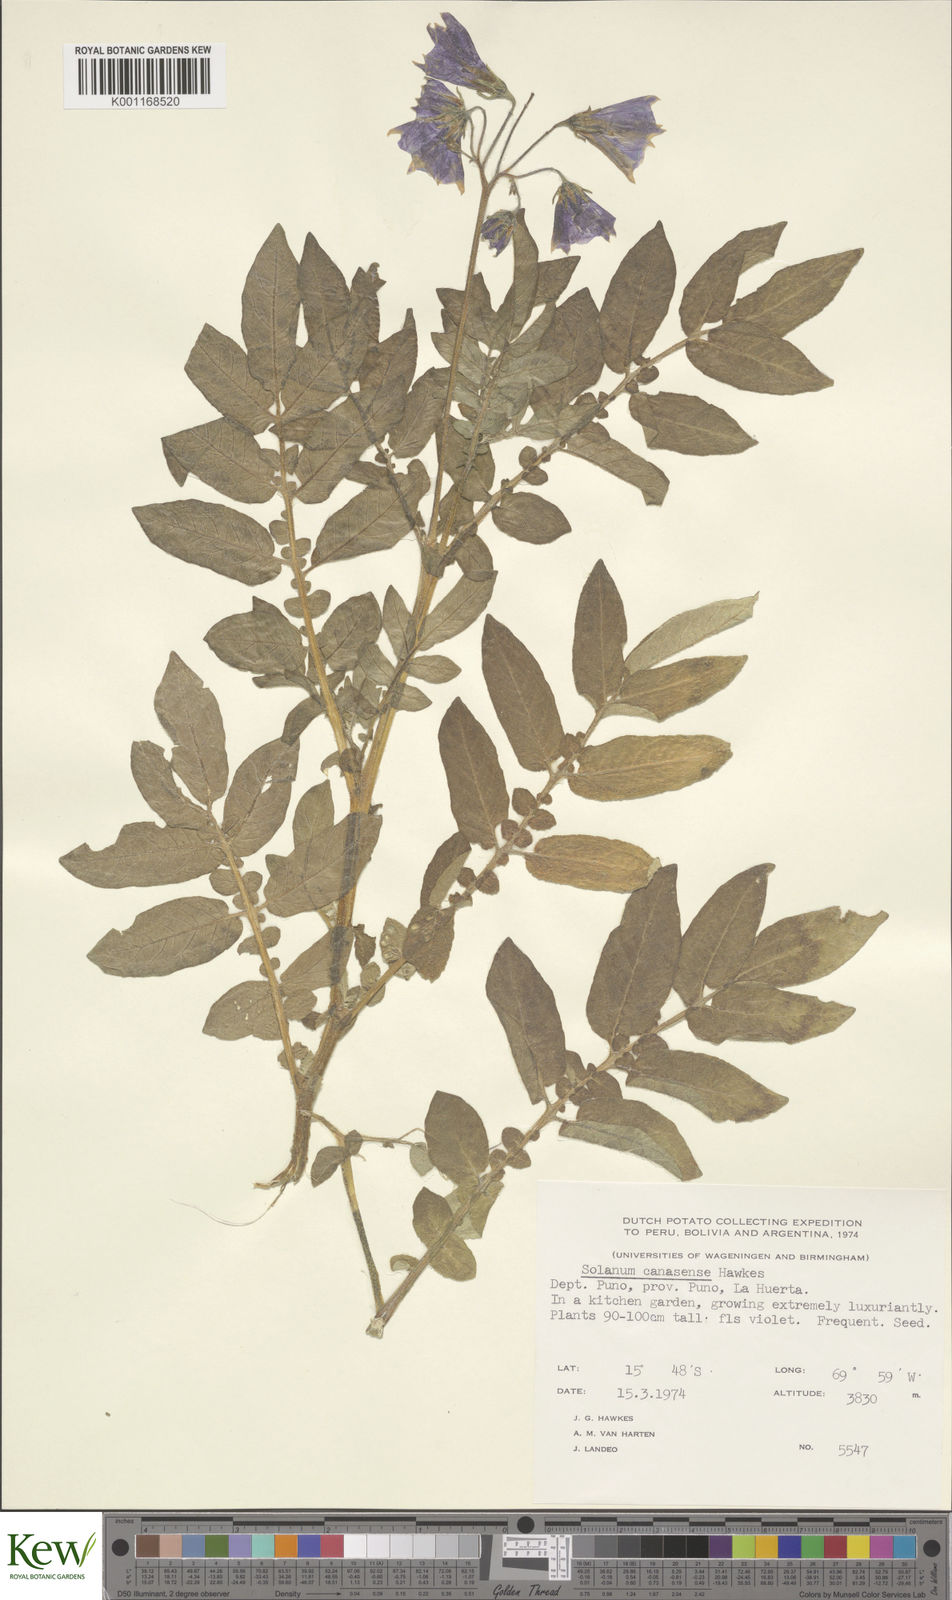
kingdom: Plantae
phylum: Tracheophyta
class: Magnoliopsida
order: Solanales
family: Solanaceae
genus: Solanum
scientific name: Solanum candolleanum
